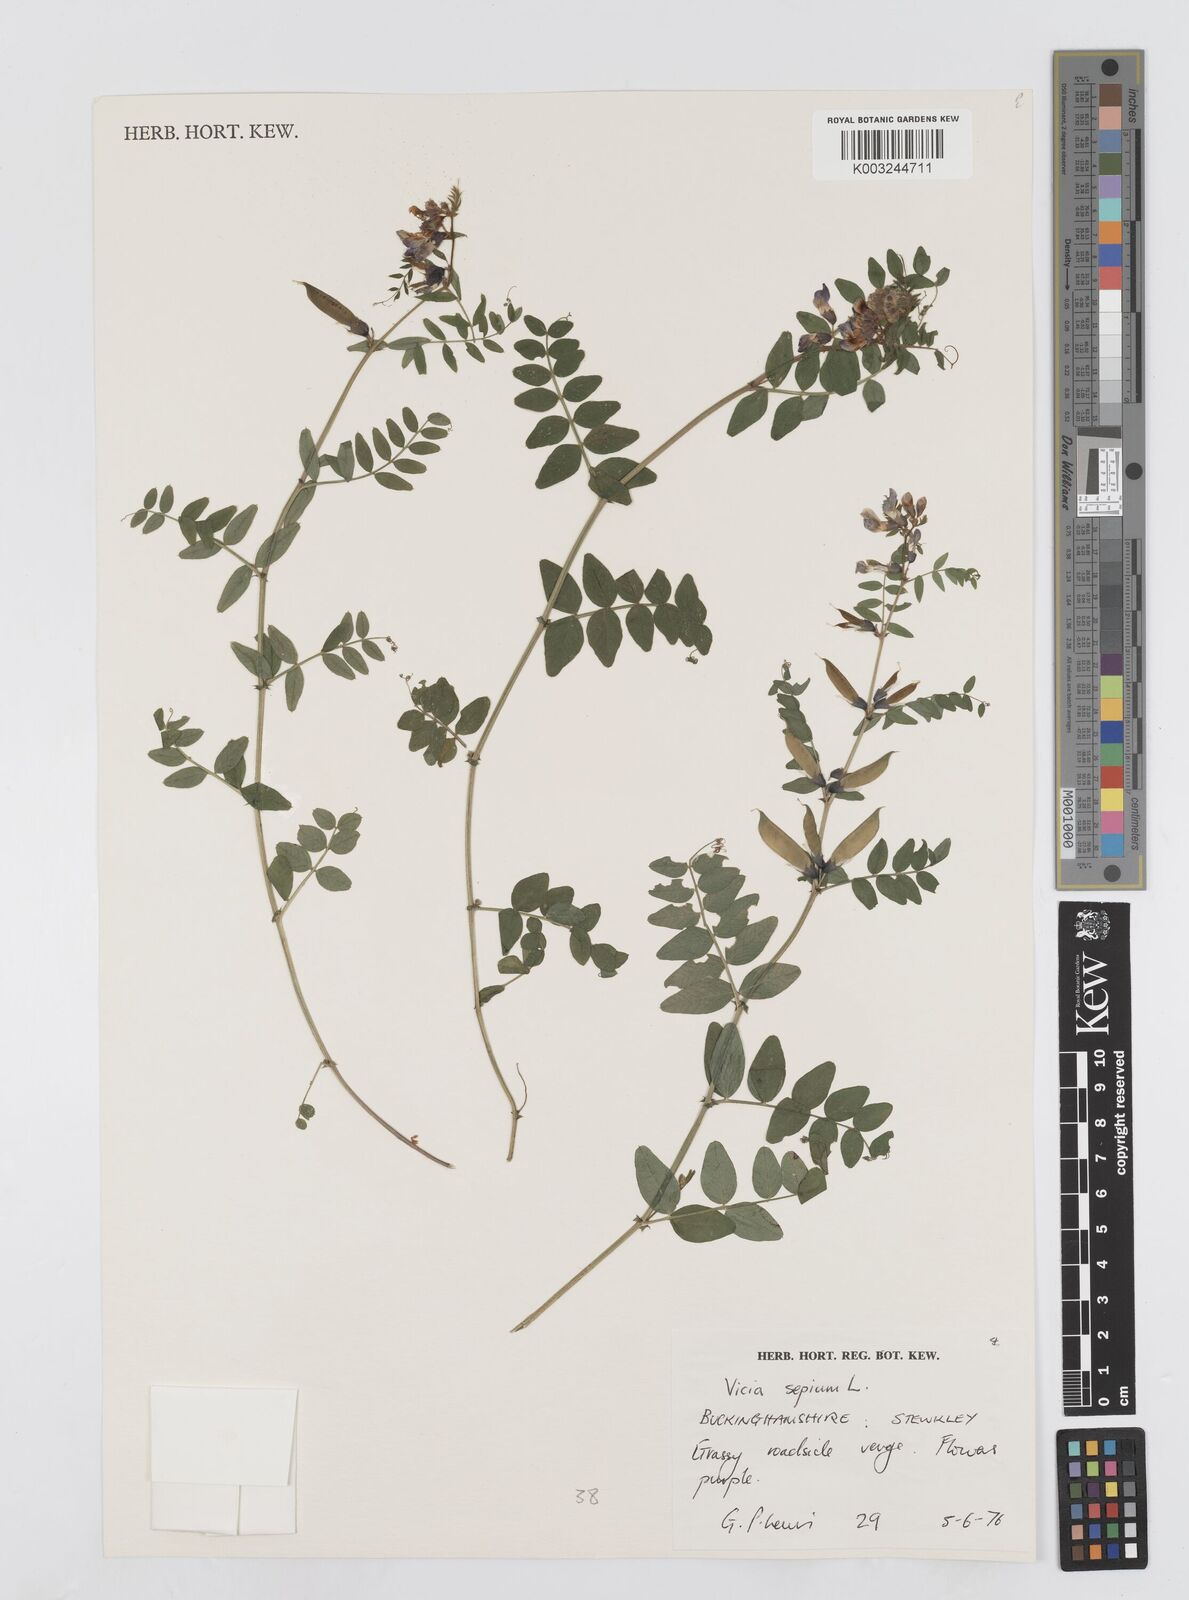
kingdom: Plantae
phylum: Tracheophyta
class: Magnoliopsida
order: Fabales
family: Fabaceae
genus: Vicia
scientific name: Vicia sepium
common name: Bush vetch
